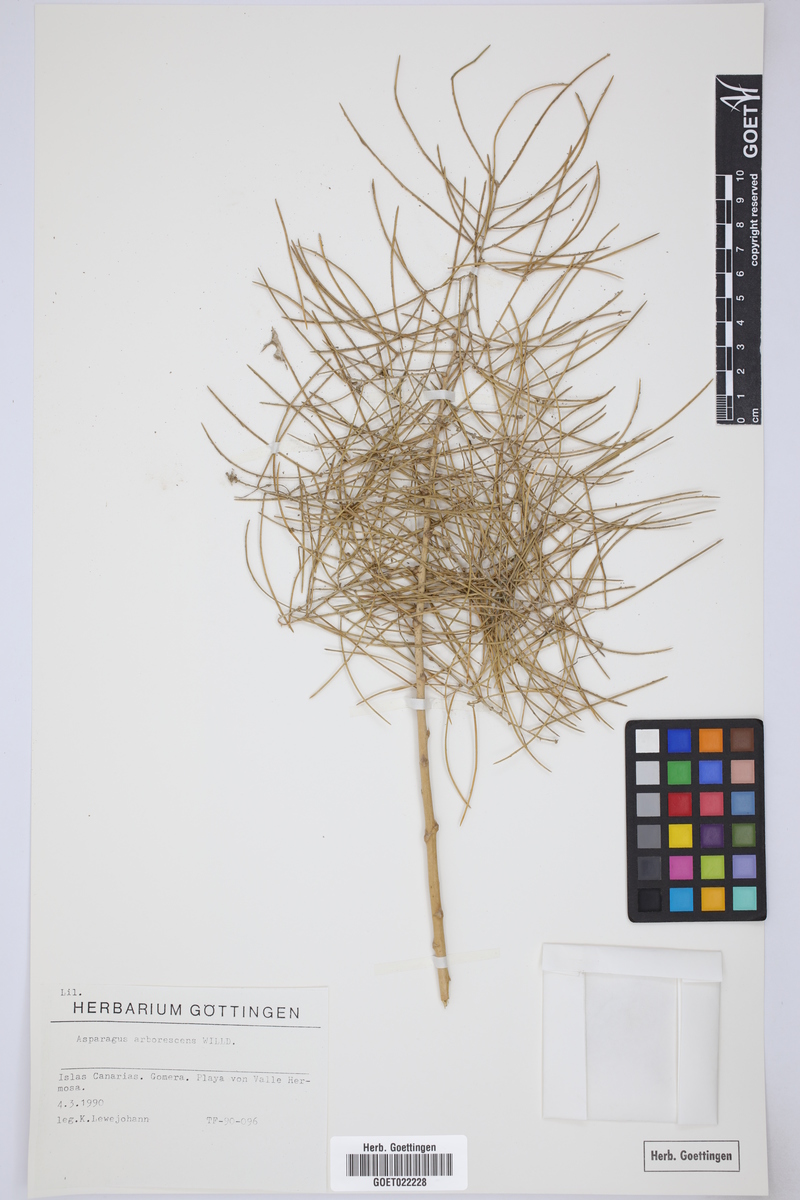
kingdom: Plantae
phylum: Tracheophyta
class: Liliopsida
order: Asparagales
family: Asparagaceae
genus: Asparagus
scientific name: Asparagus arborescens
